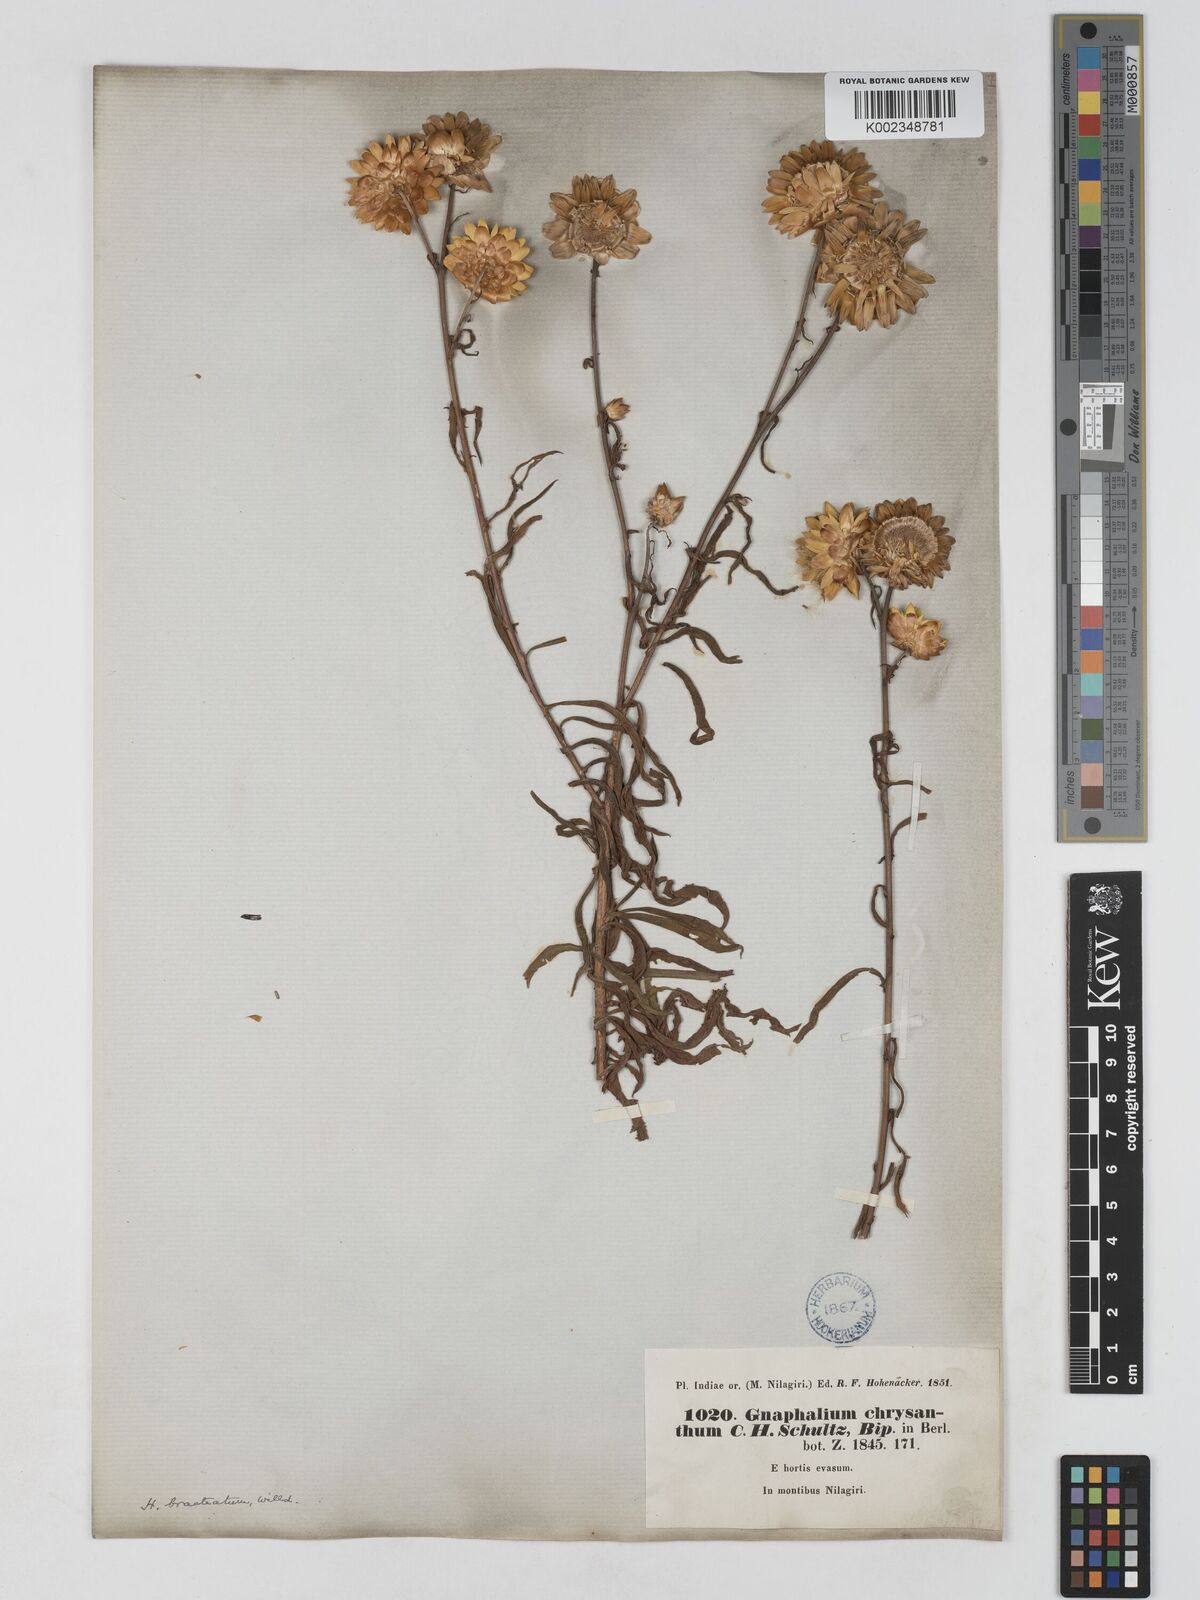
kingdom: Plantae
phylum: Tracheophyta
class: Magnoliopsida
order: Asterales
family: Asteraceae
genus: Xerochrysum
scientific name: Xerochrysum bracteatum
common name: Bracted strawflower
